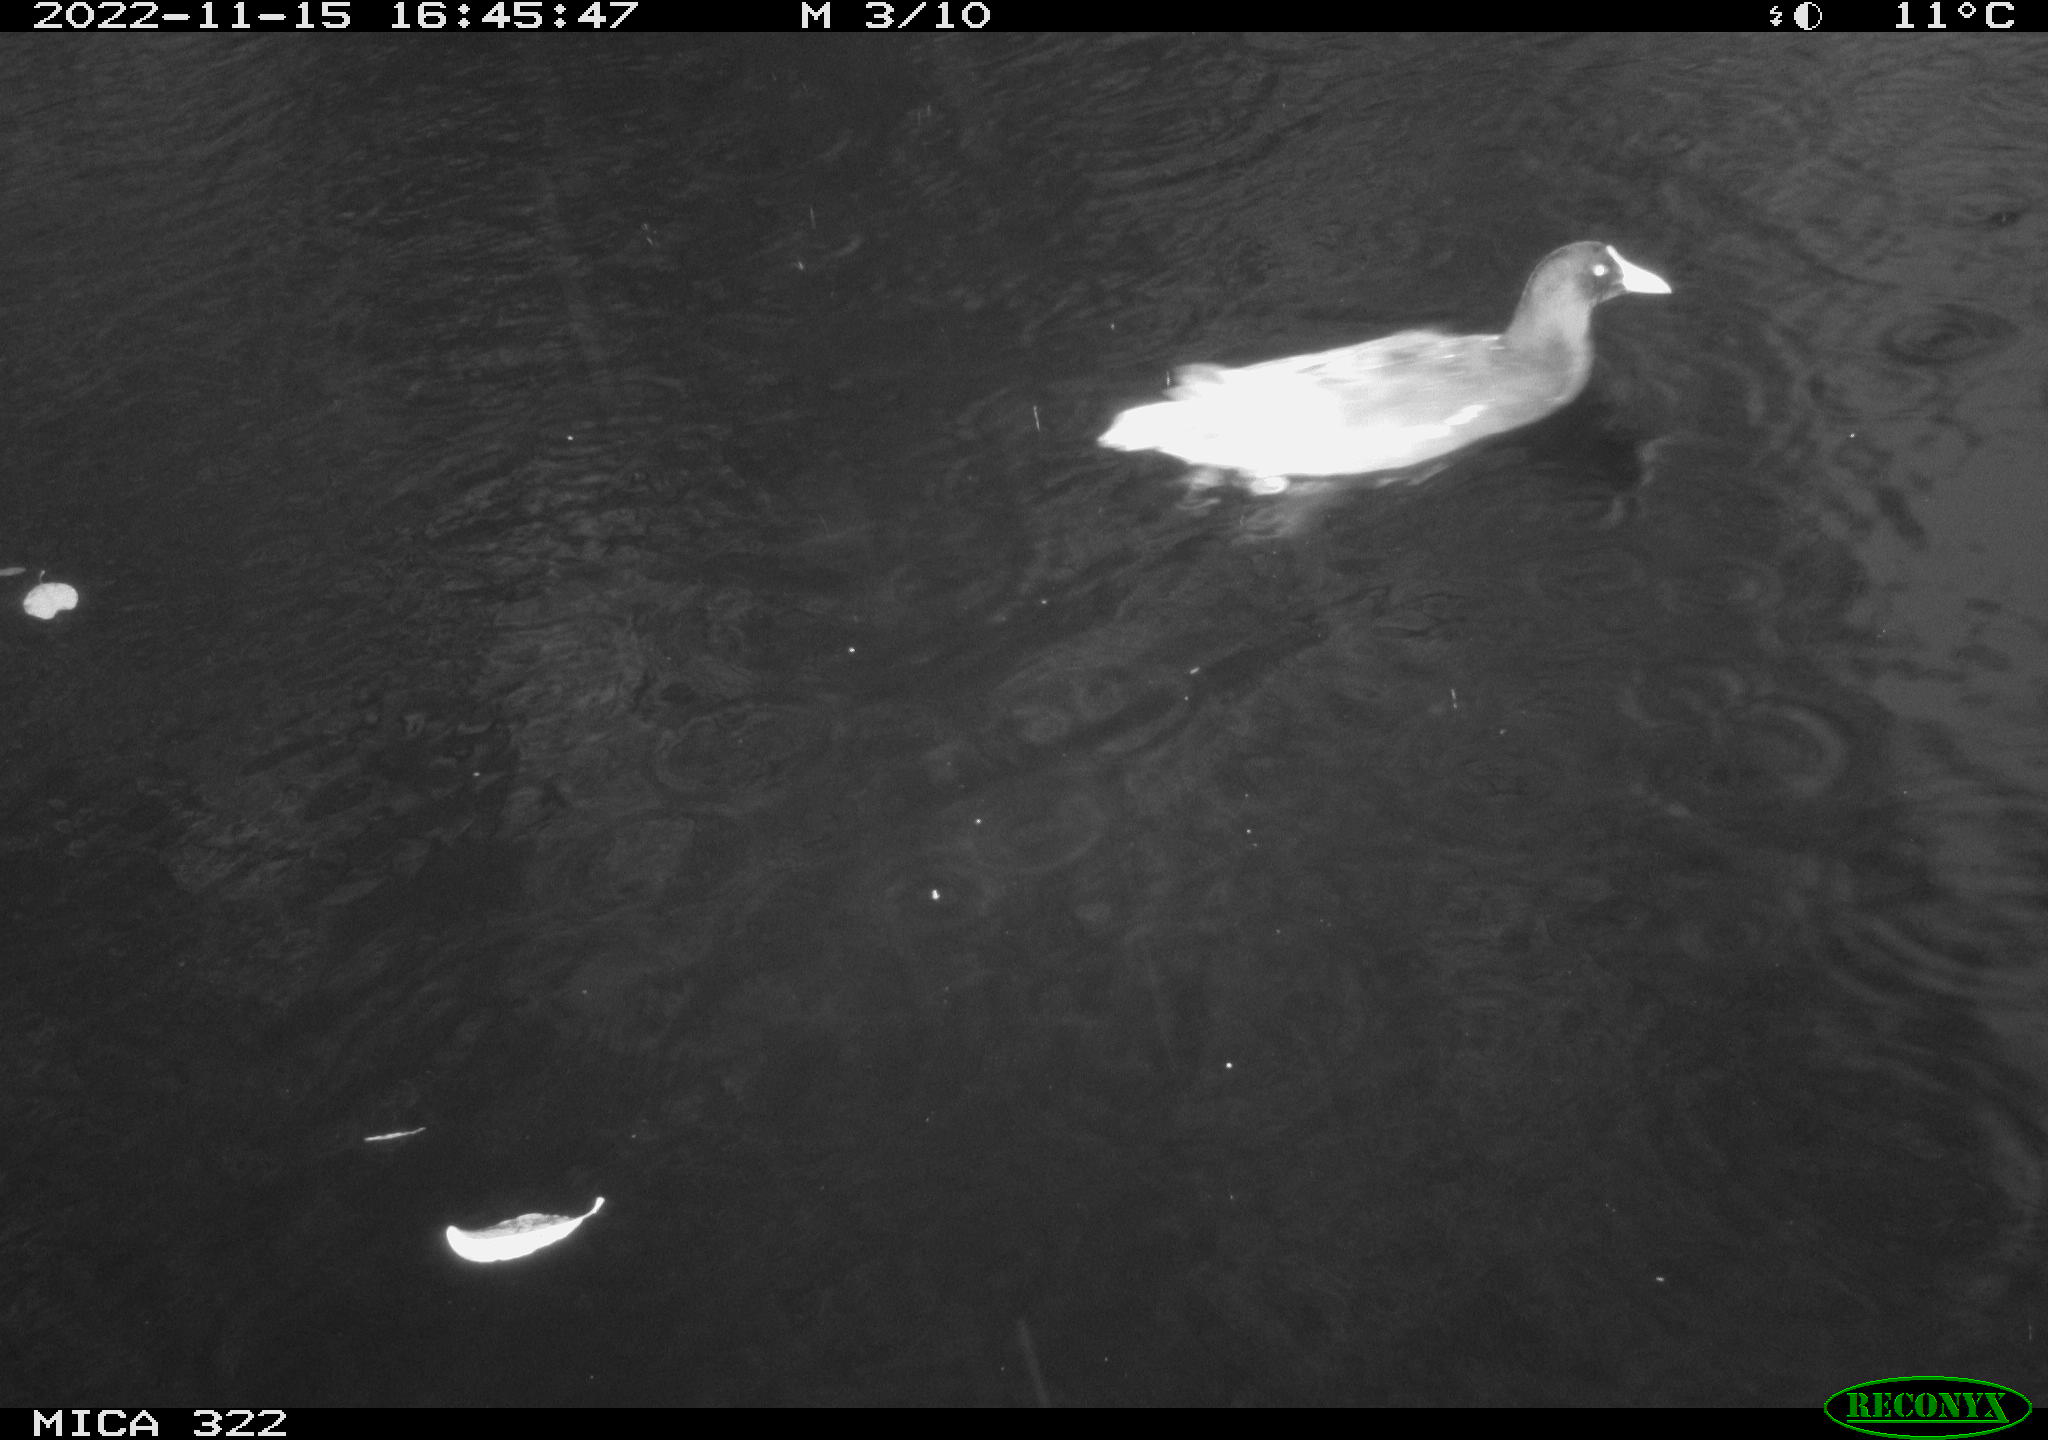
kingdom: Animalia
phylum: Chordata
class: Aves
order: Anseriformes
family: Anatidae
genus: Anas
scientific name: Anas
